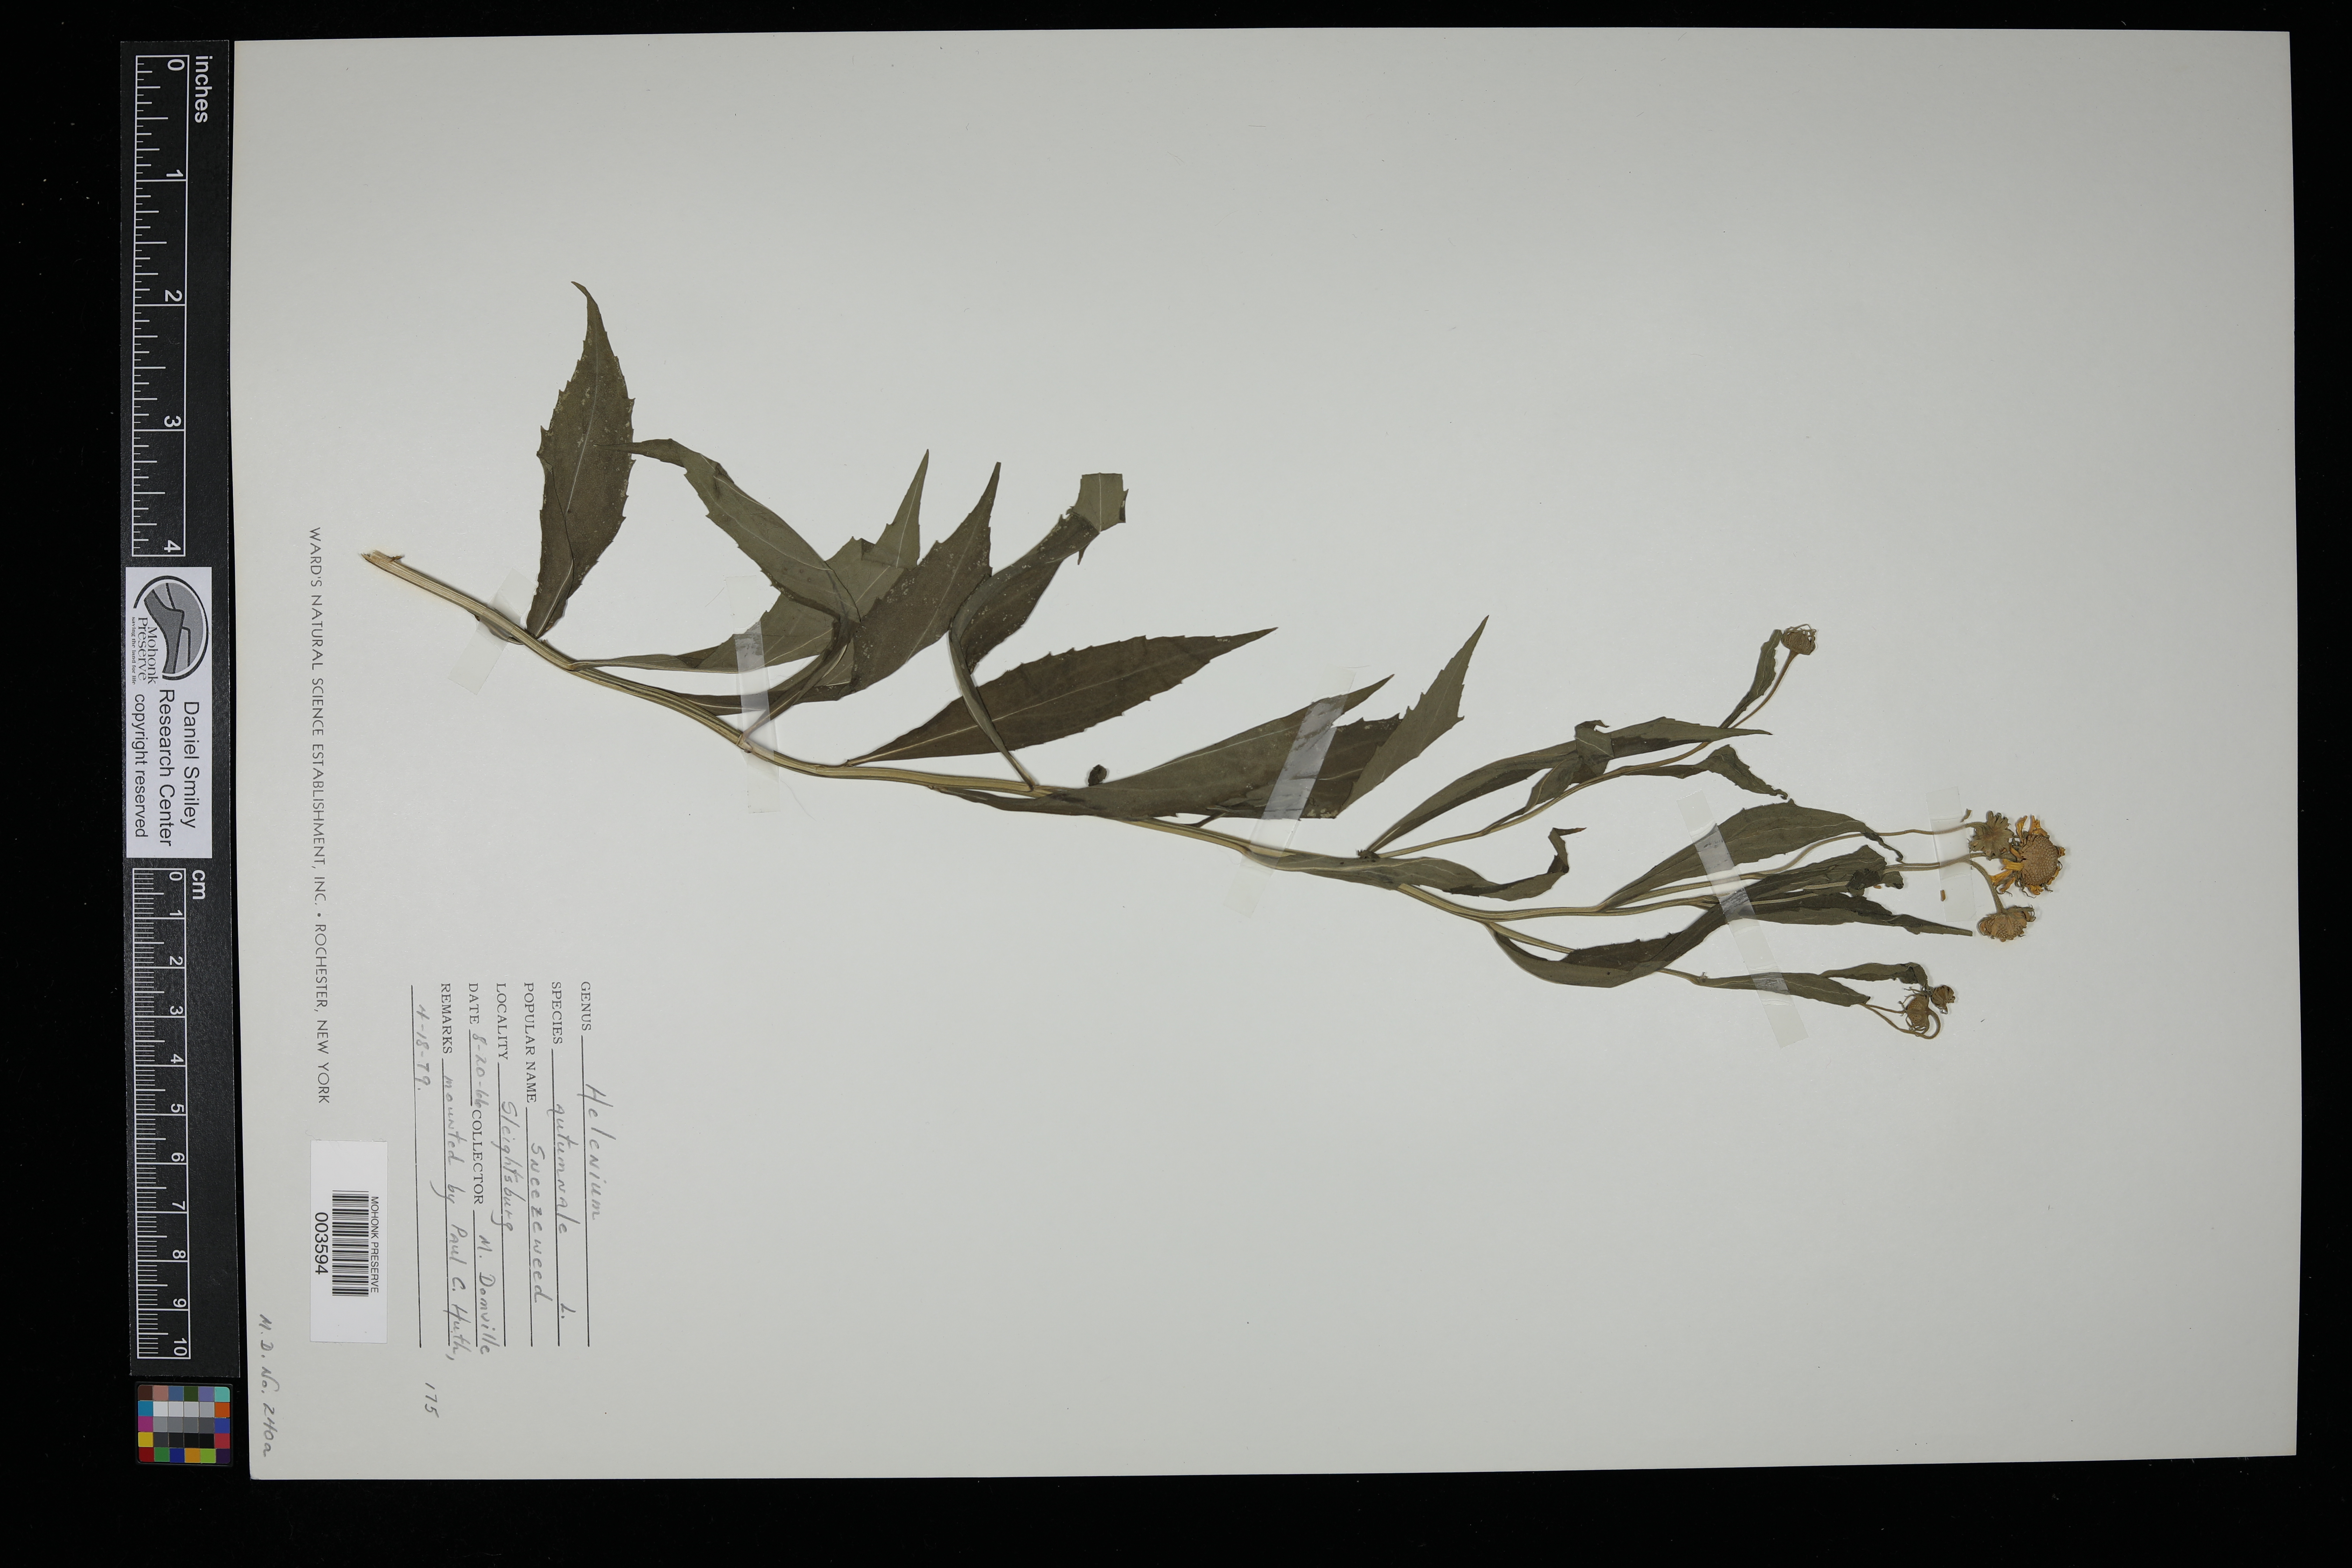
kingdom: Plantae
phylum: Tracheophyta
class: Magnoliopsida
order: Asterales
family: Asteraceae
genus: Helenium
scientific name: Helenium autumnale
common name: Sneezeweed
